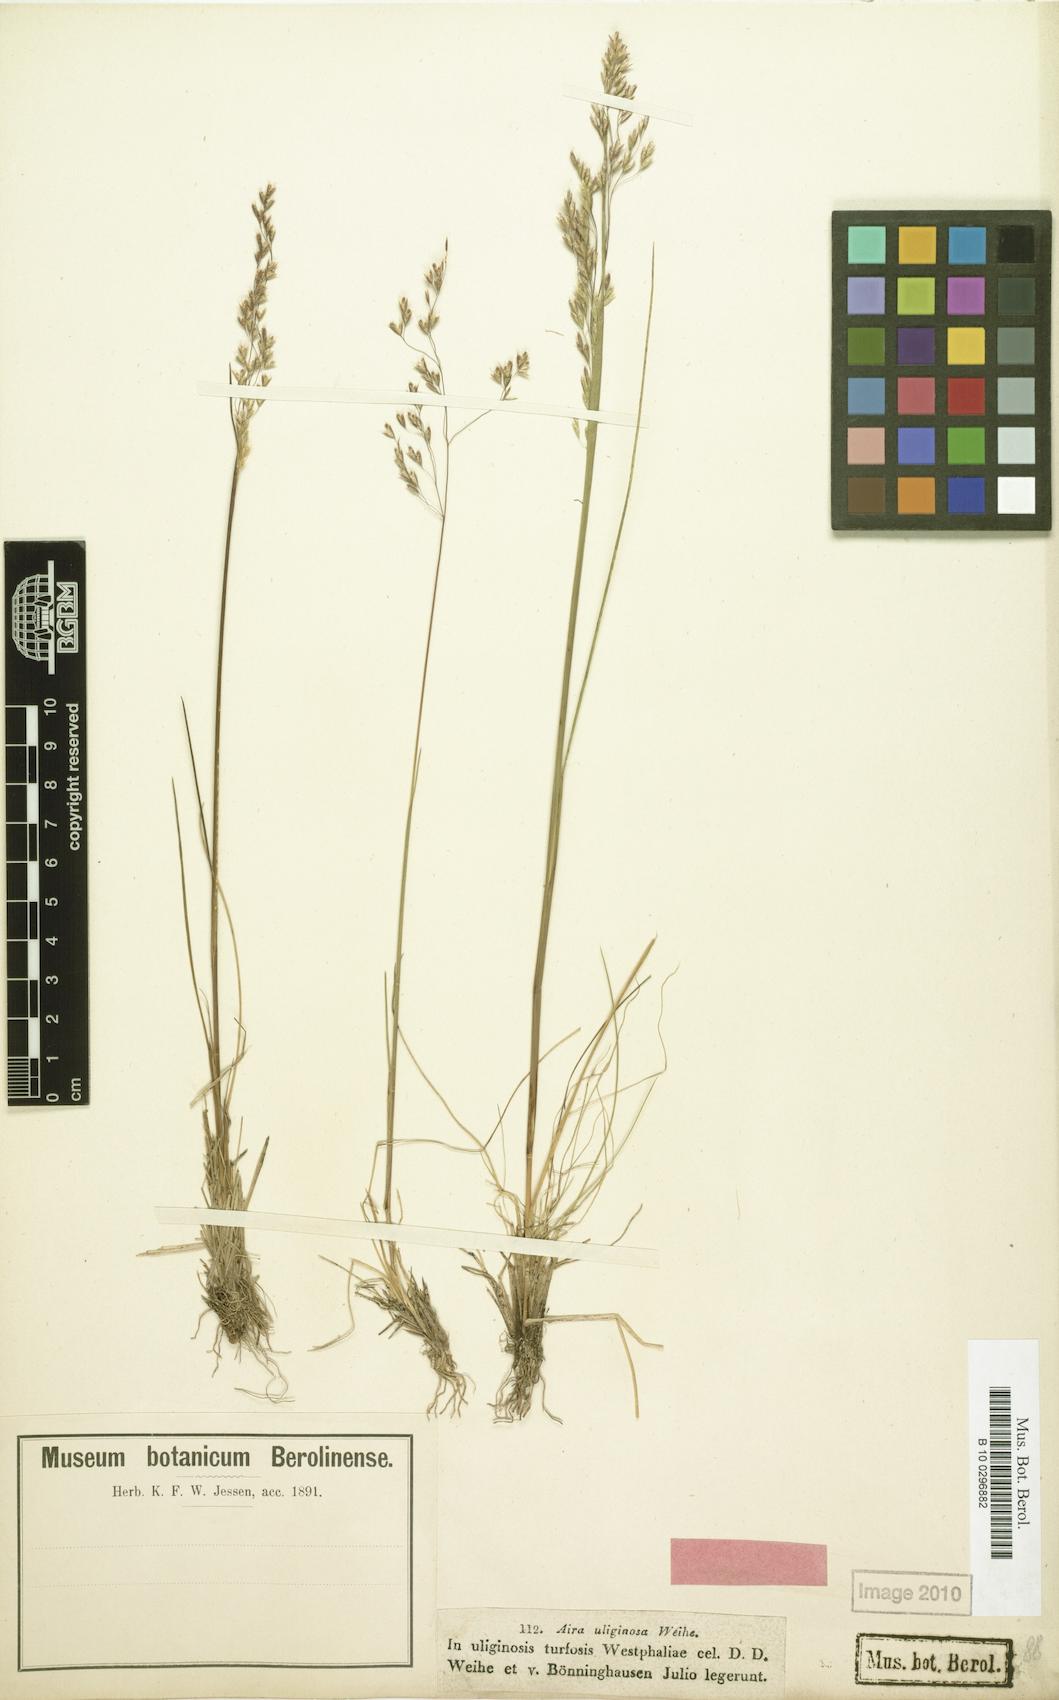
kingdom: Plantae
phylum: Tracheophyta
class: Liliopsida
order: Poales
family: Poaceae
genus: Deschampsia
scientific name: Deschampsia setacea
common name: Bog hair-grass
